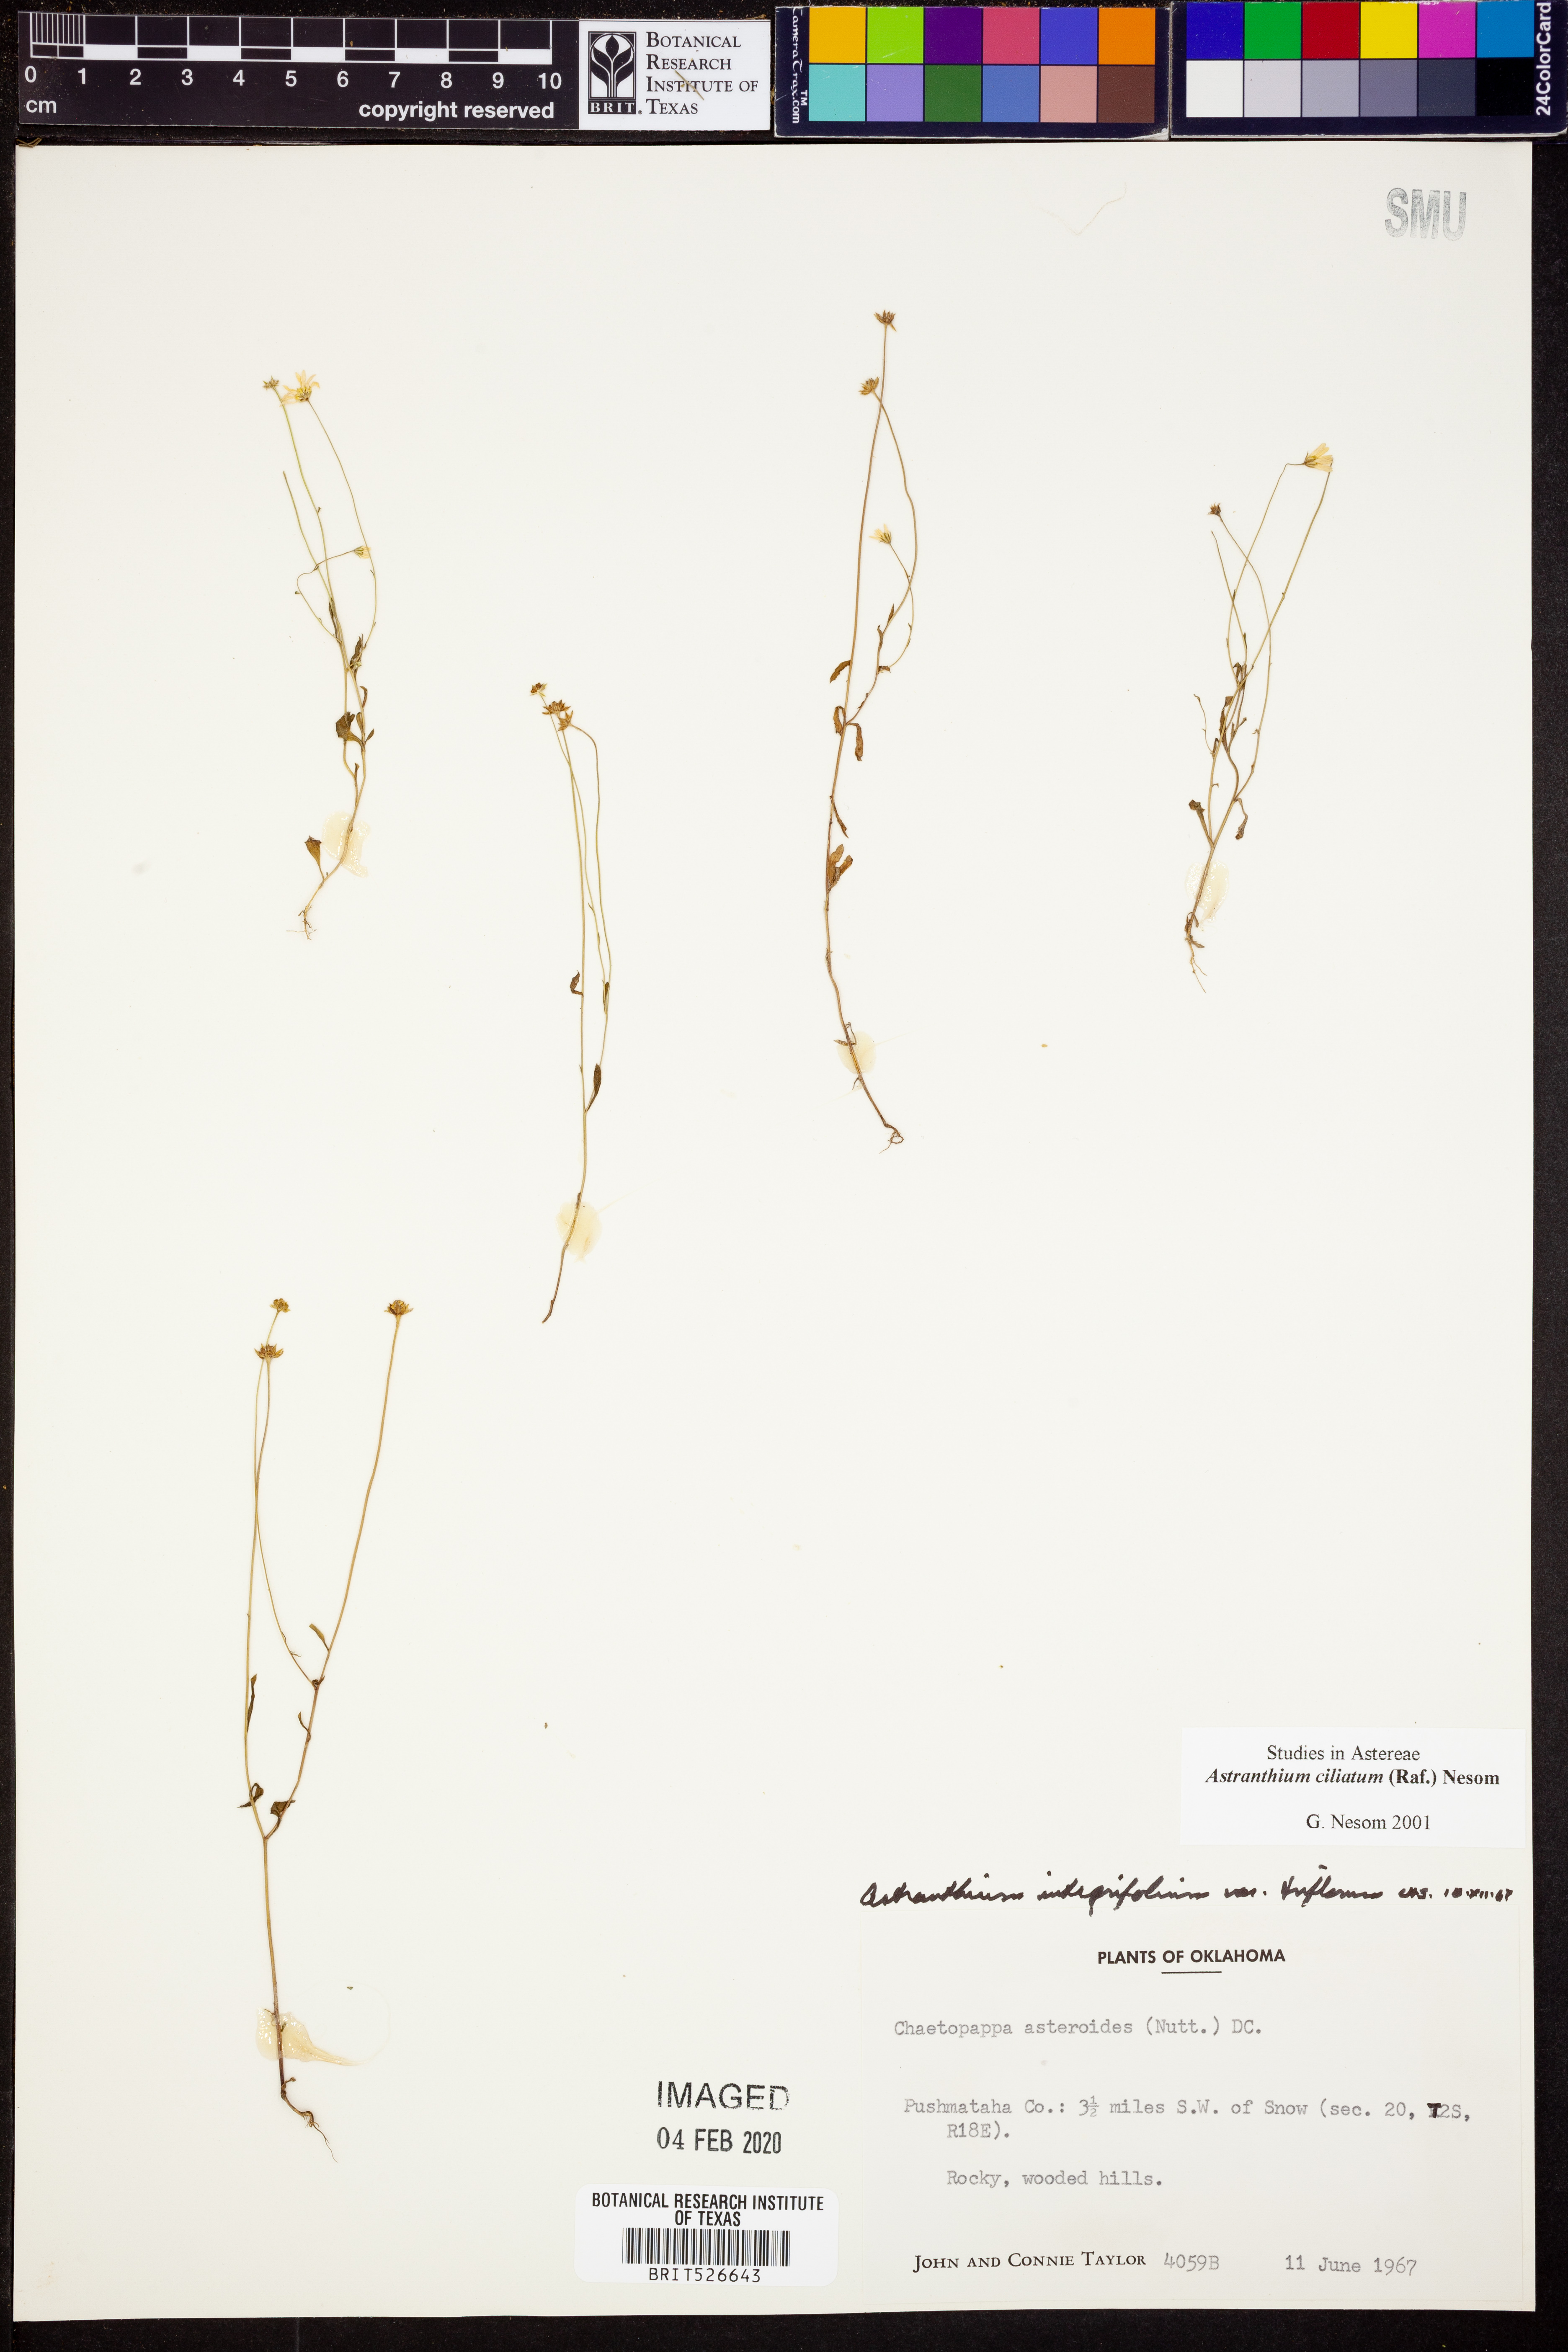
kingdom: Plantae
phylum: Tracheophyta
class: Magnoliopsida
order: Asterales
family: Asteraceae
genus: Astranthium
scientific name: Astranthium ciliatum
